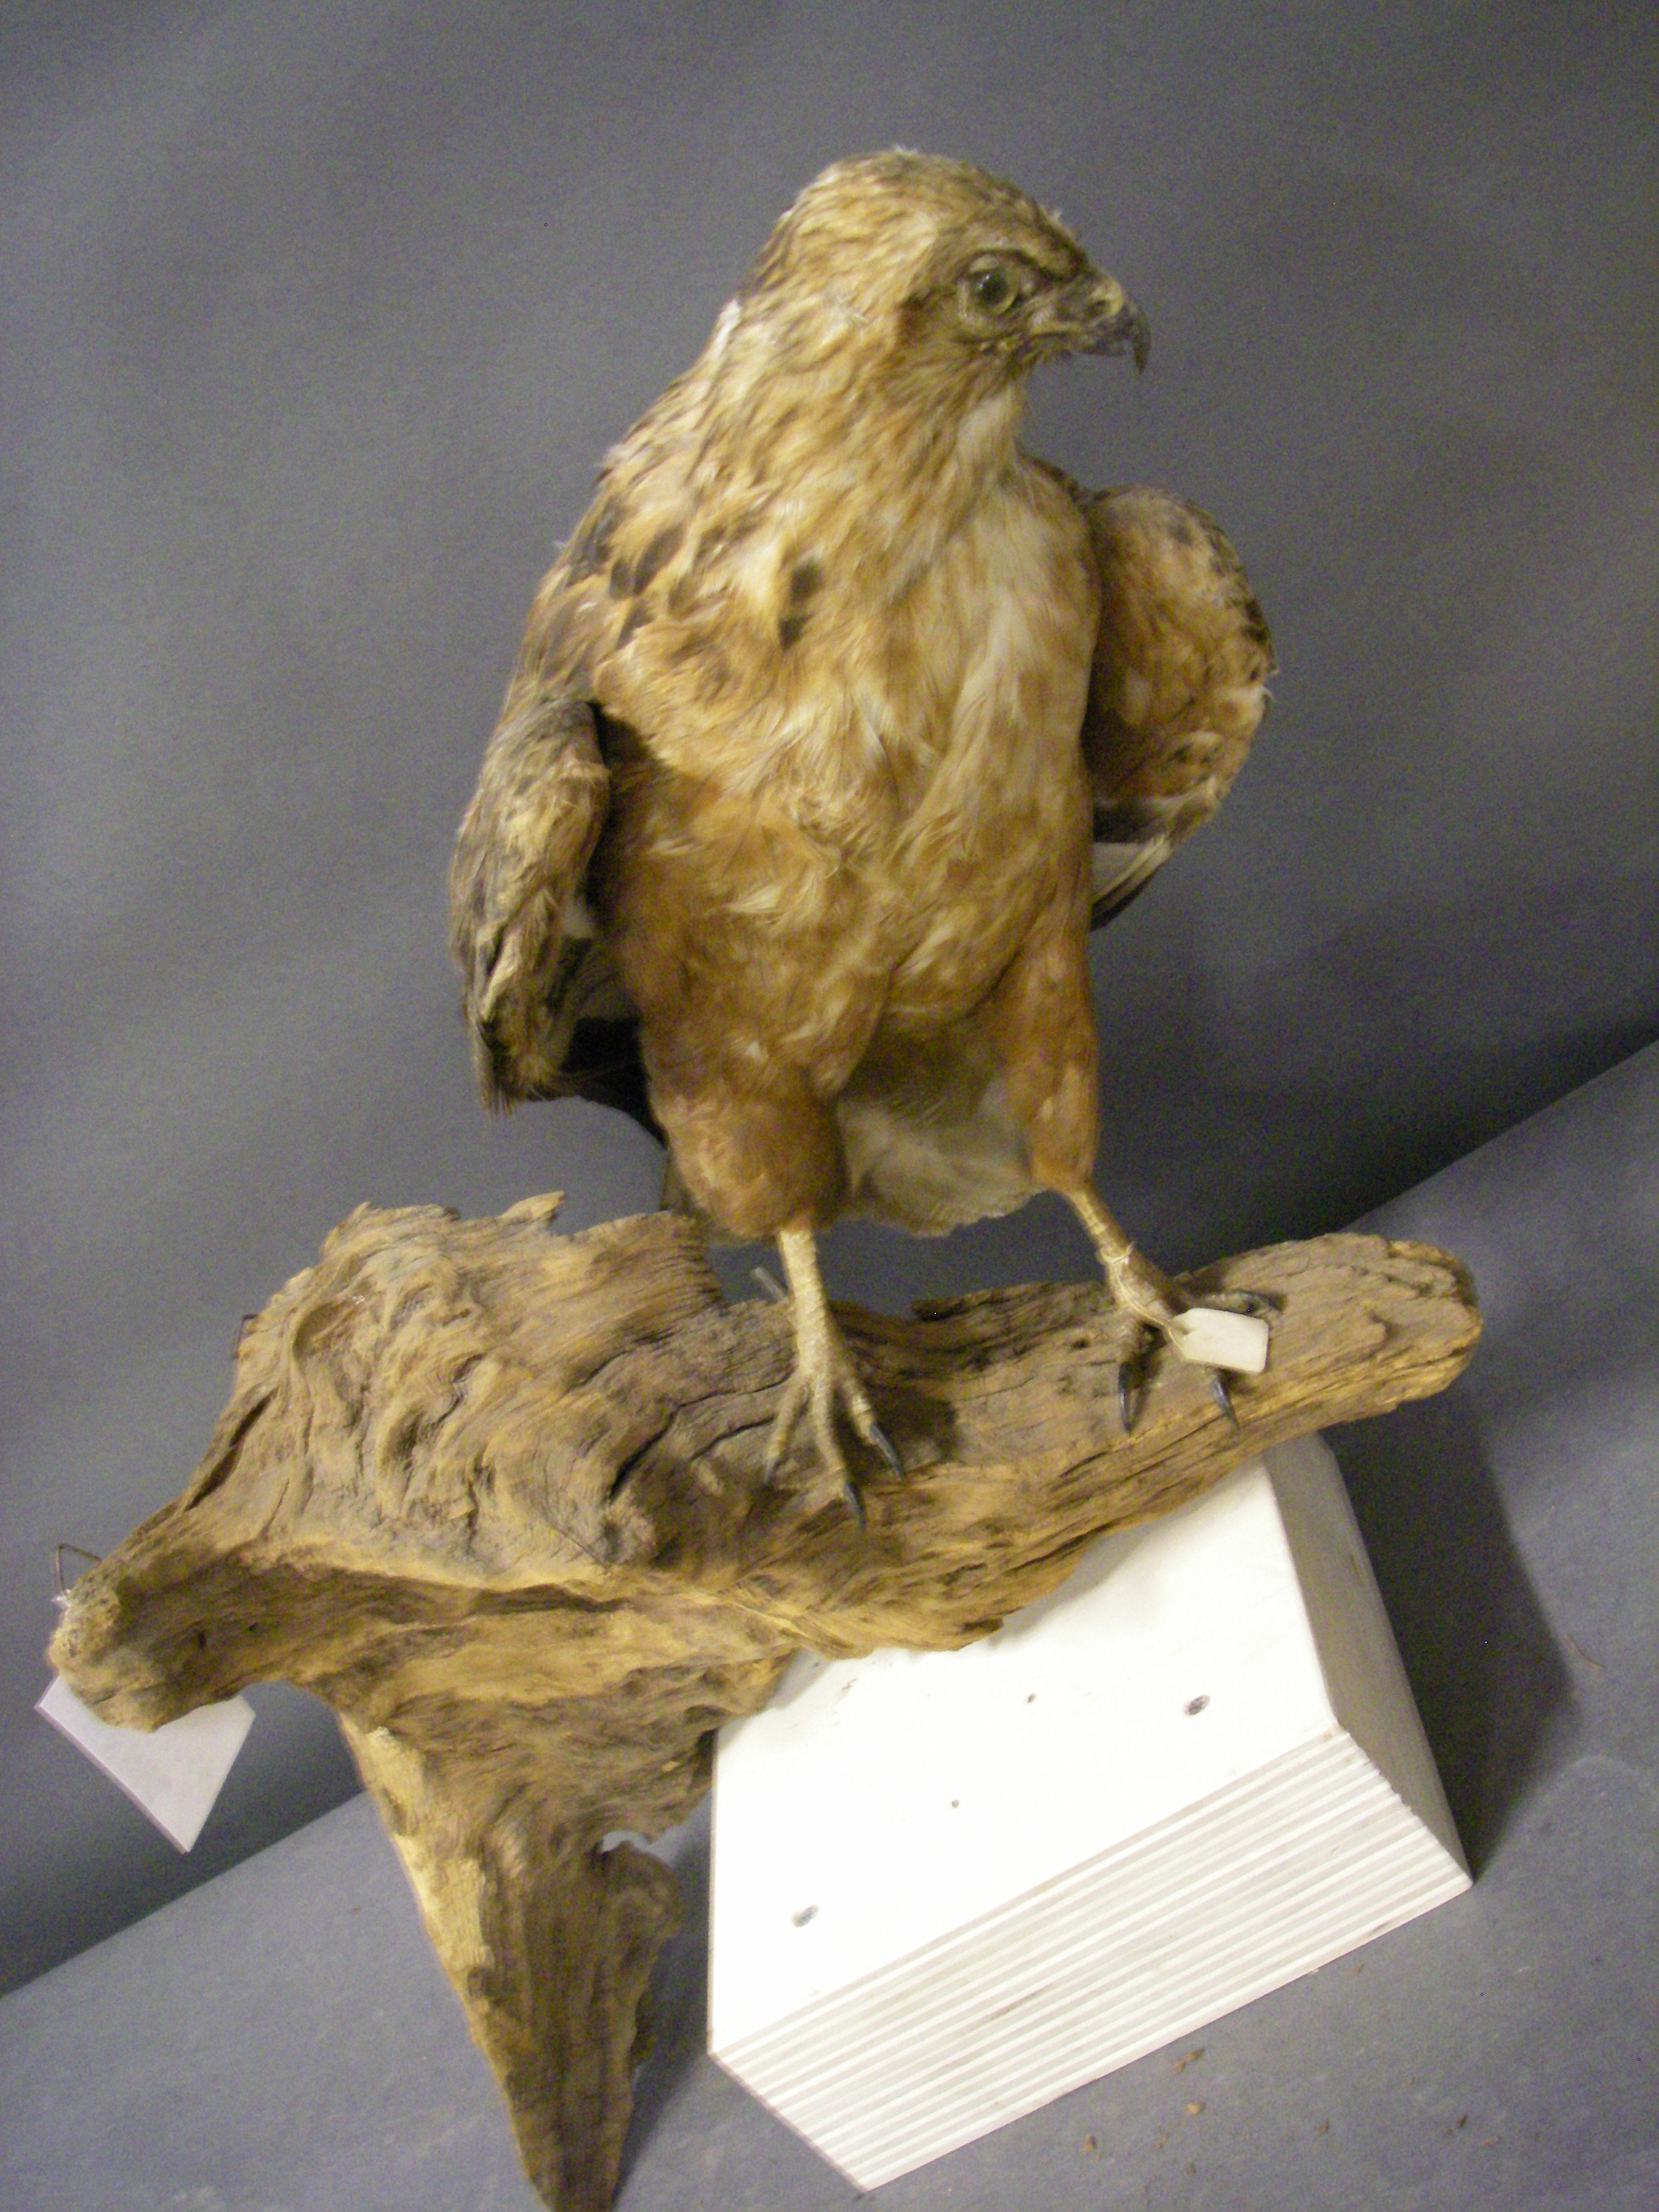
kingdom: Animalia
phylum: Chordata
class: Aves
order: Accipitriformes
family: Accipitridae
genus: Buteo
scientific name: Buteo buteo
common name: Common buzzard
